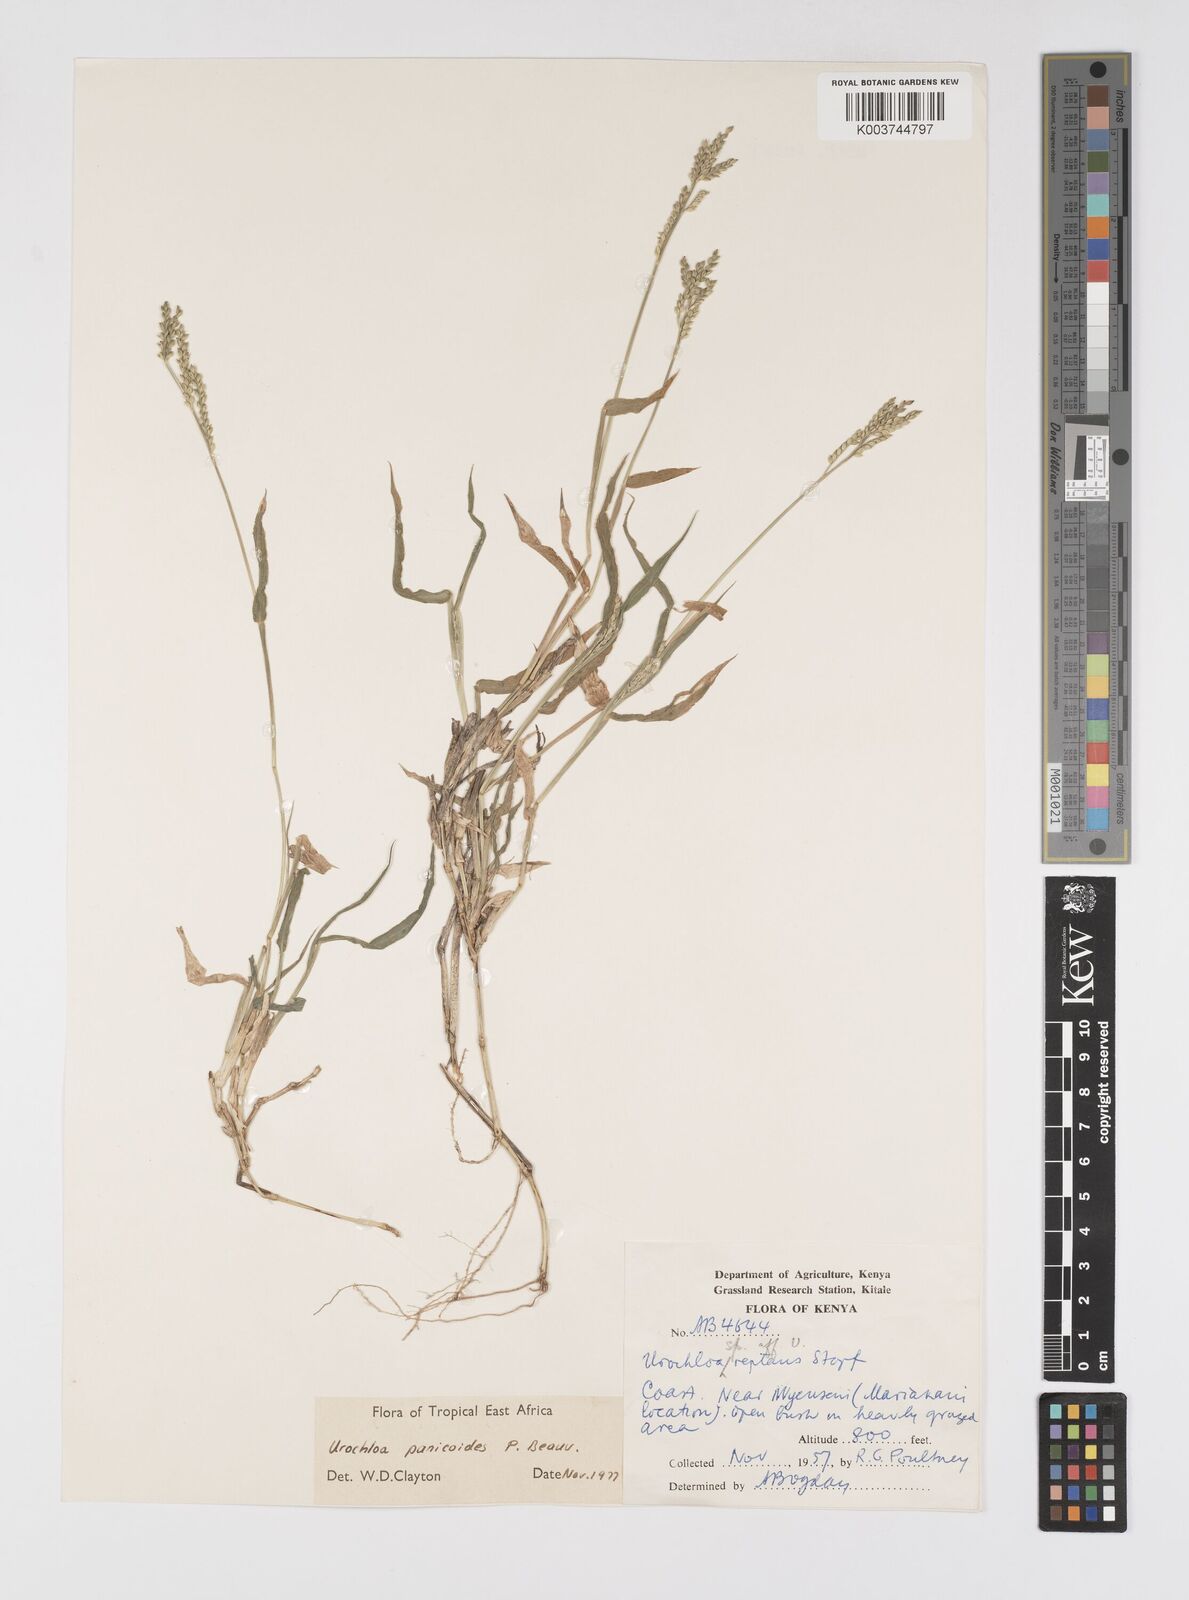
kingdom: Plantae
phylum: Tracheophyta
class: Liliopsida
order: Poales
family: Poaceae
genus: Urochloa
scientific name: Urochloa panicoides
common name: Sharp-flowered signal-grass
